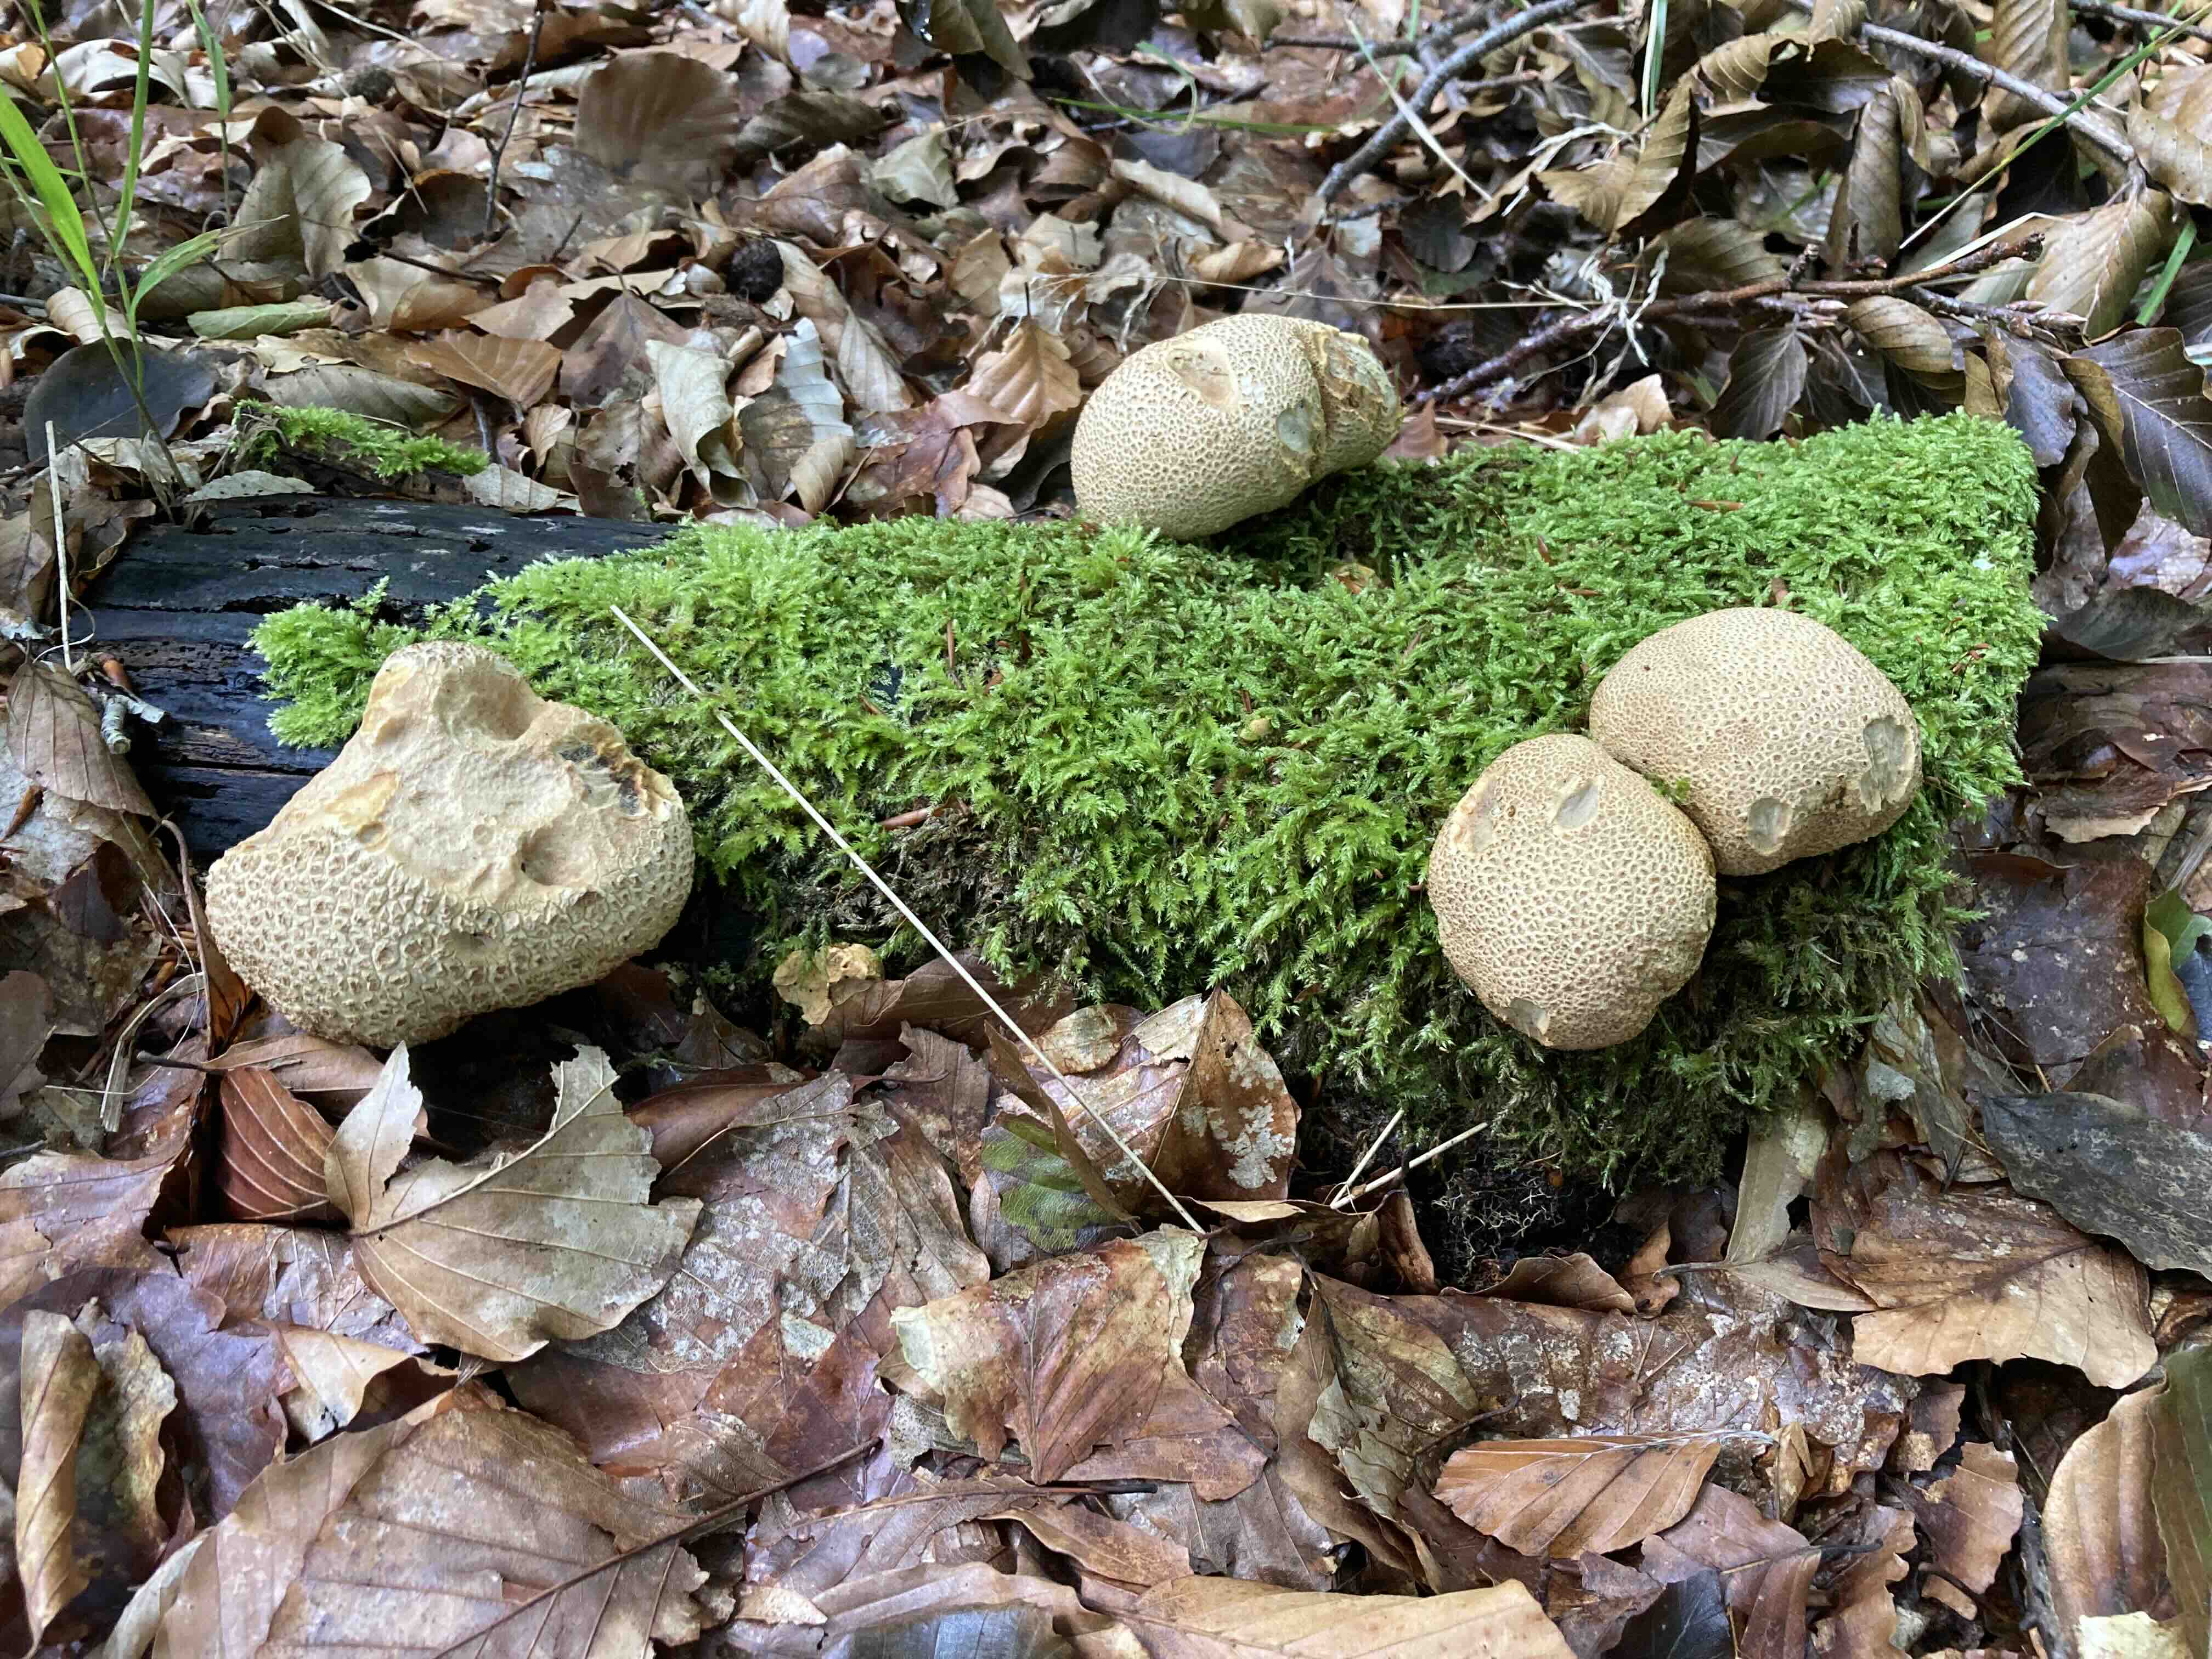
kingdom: Fungi
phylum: Basidiomycota
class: Agaricomycetes
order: Boletales
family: Sclerodermataceae
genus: Scleroderma
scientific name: Scleroderma citrinum
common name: almindelig bruskbold
